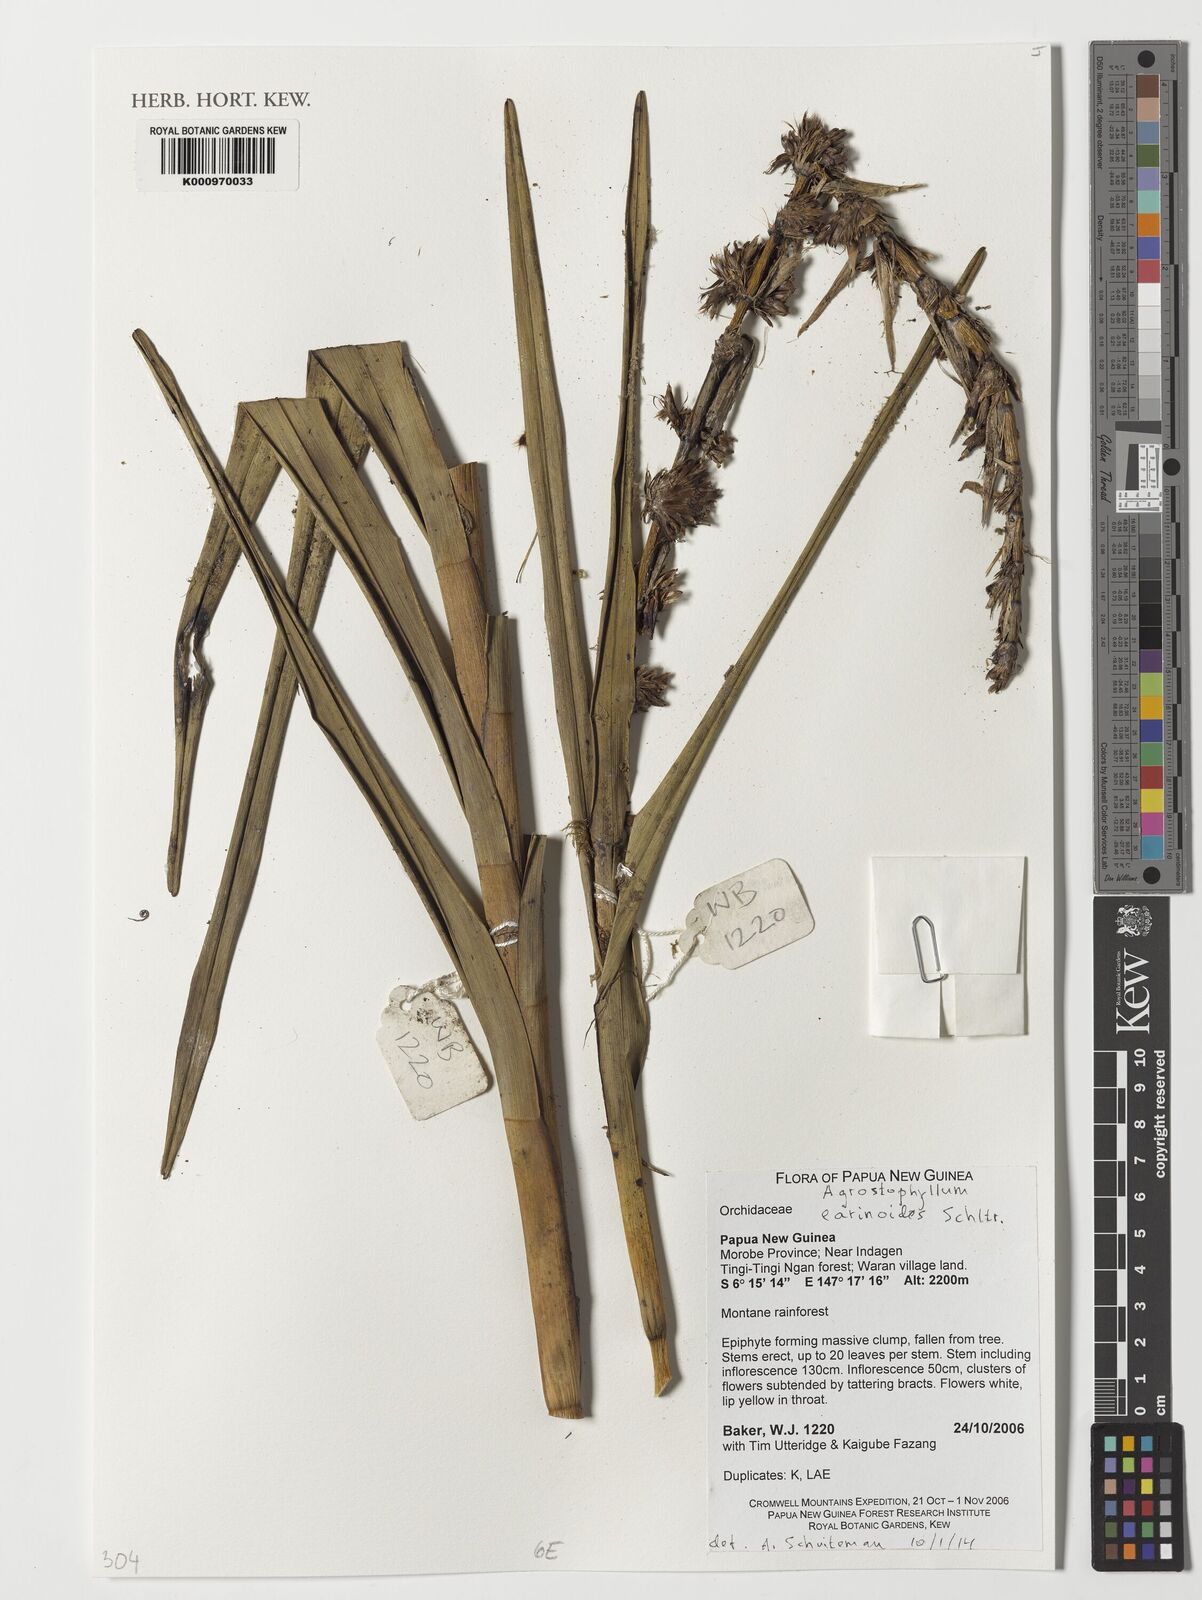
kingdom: Plantae
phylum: Tracheophyta
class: Liliopsida
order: Asparagales
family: Orchidaceae
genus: Agrostophyllum
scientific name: Agrostophyllum earinoides
